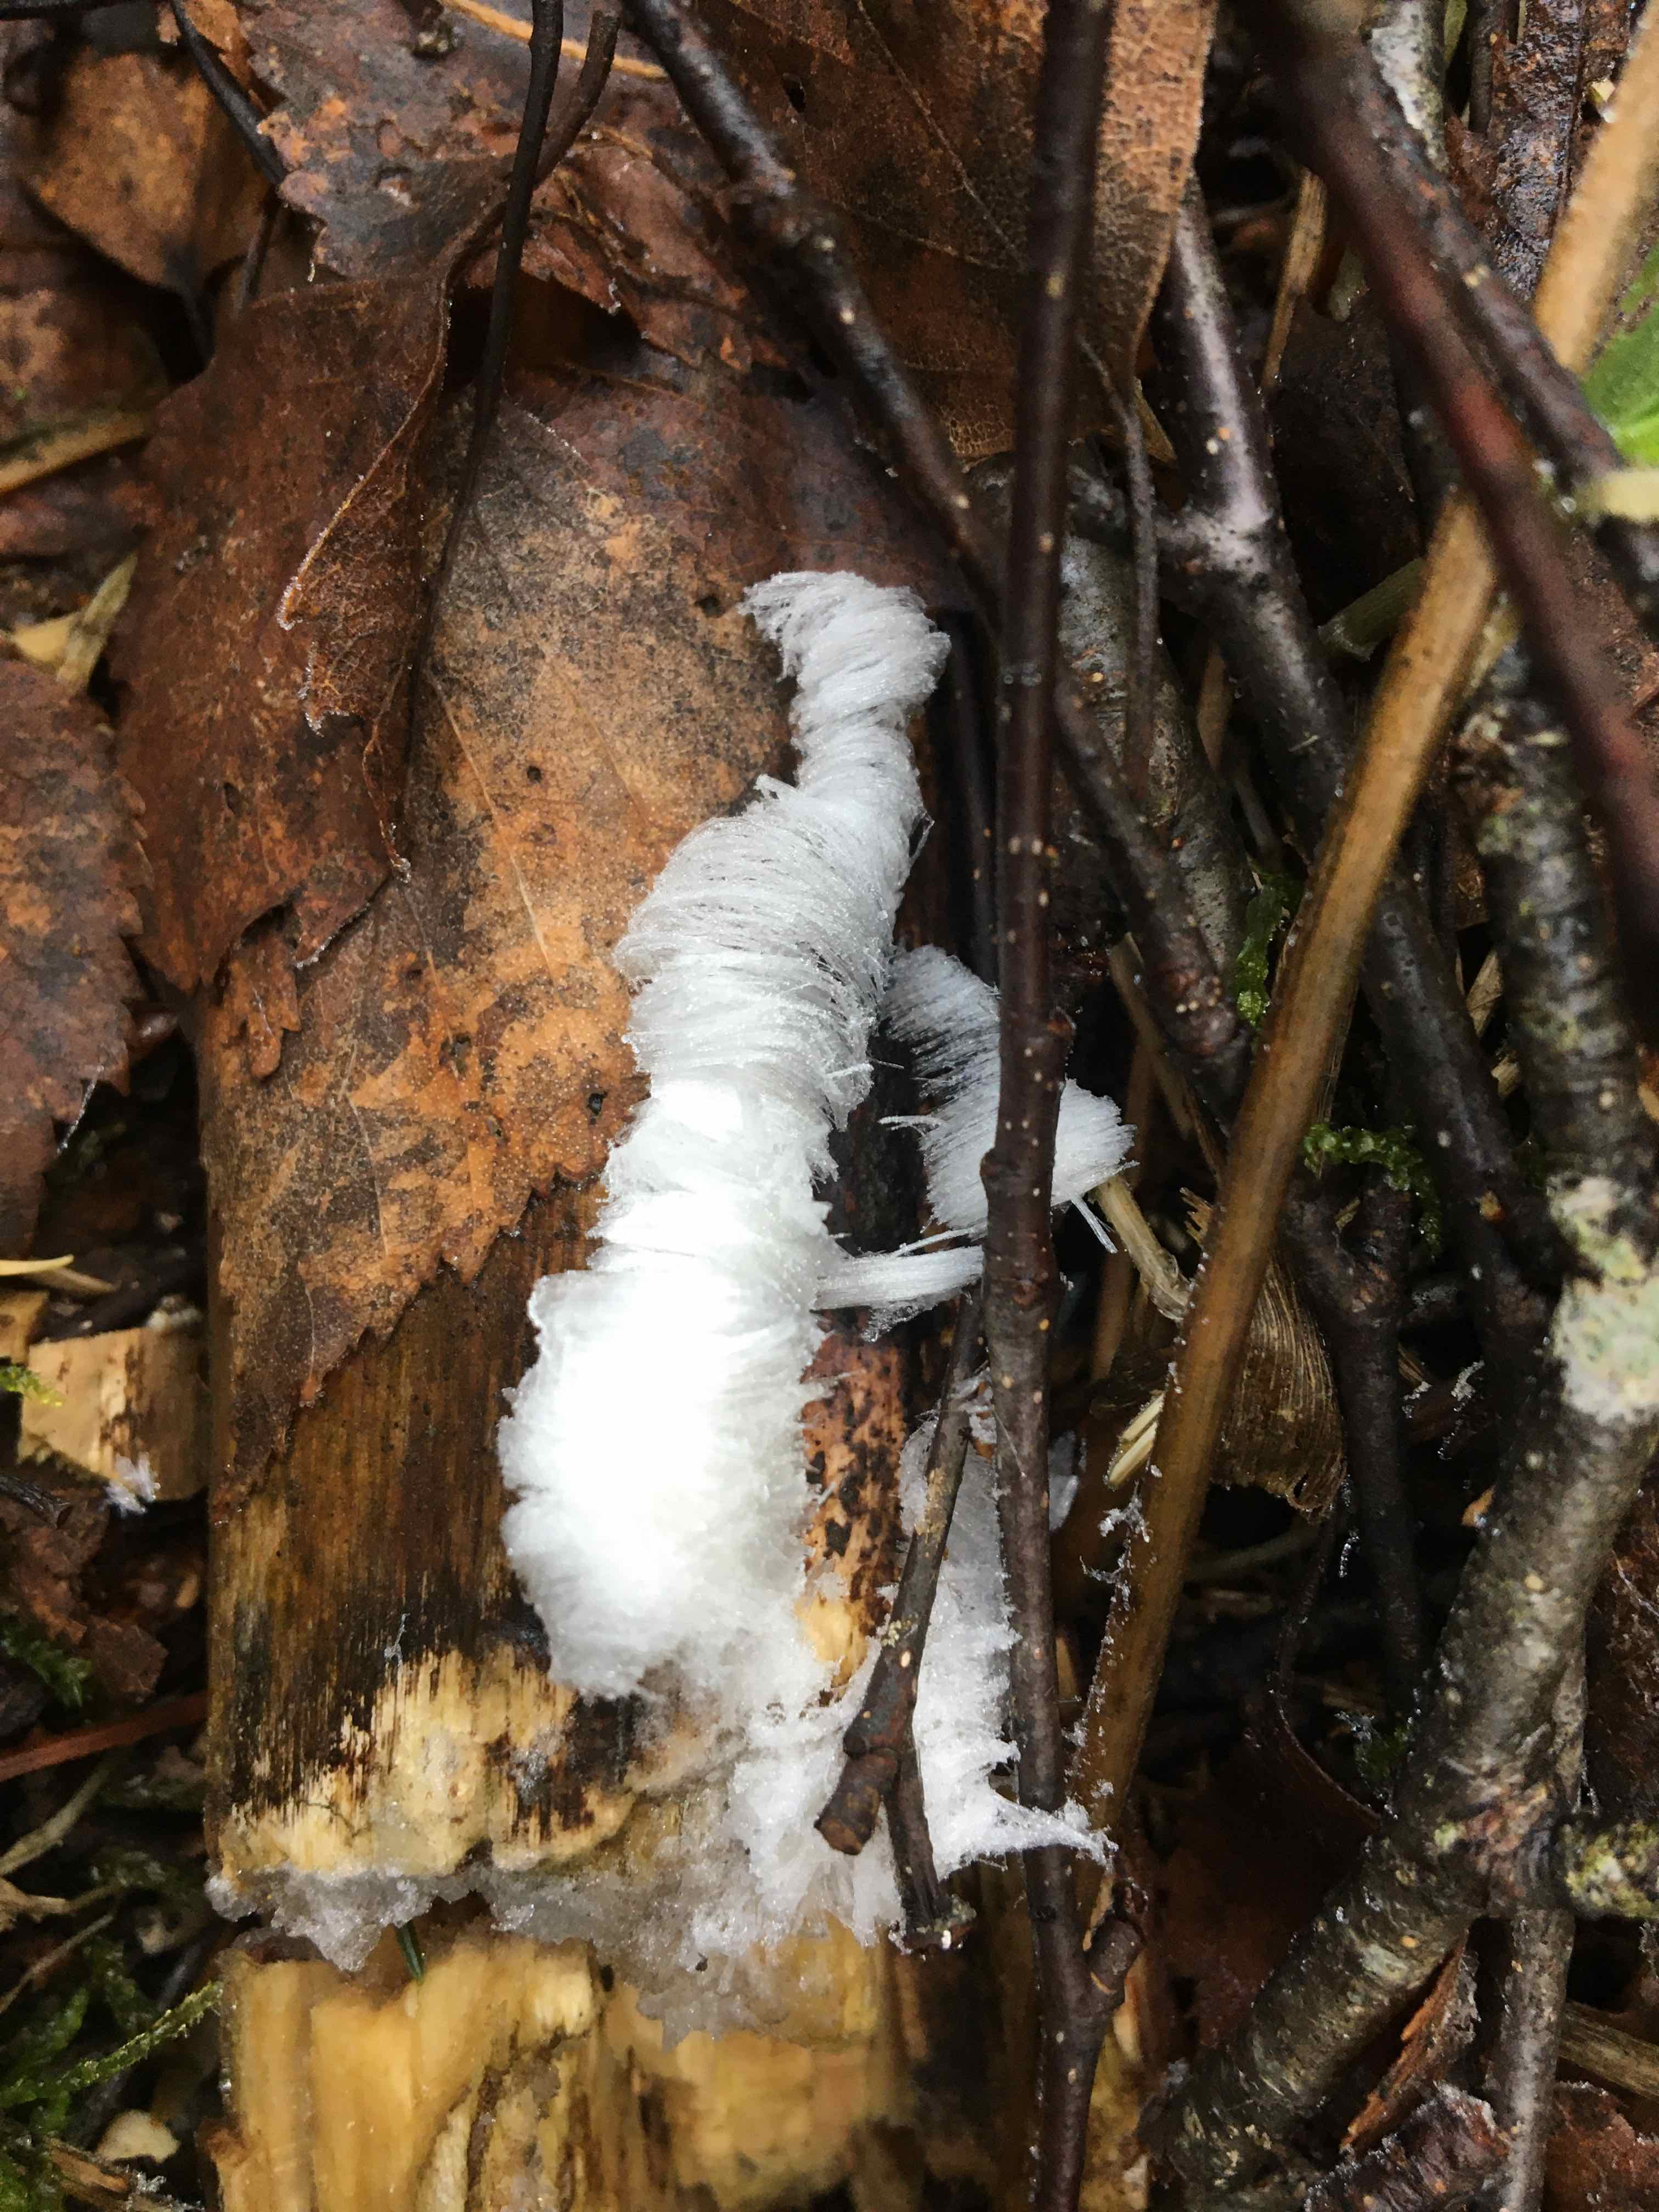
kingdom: Fungi
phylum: Basidiomycota
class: Tremellomycetes
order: Tremellales
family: Exidiaceae
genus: Exidiopsis
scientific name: Exidiopsis effusa
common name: smuk bævrehinde
